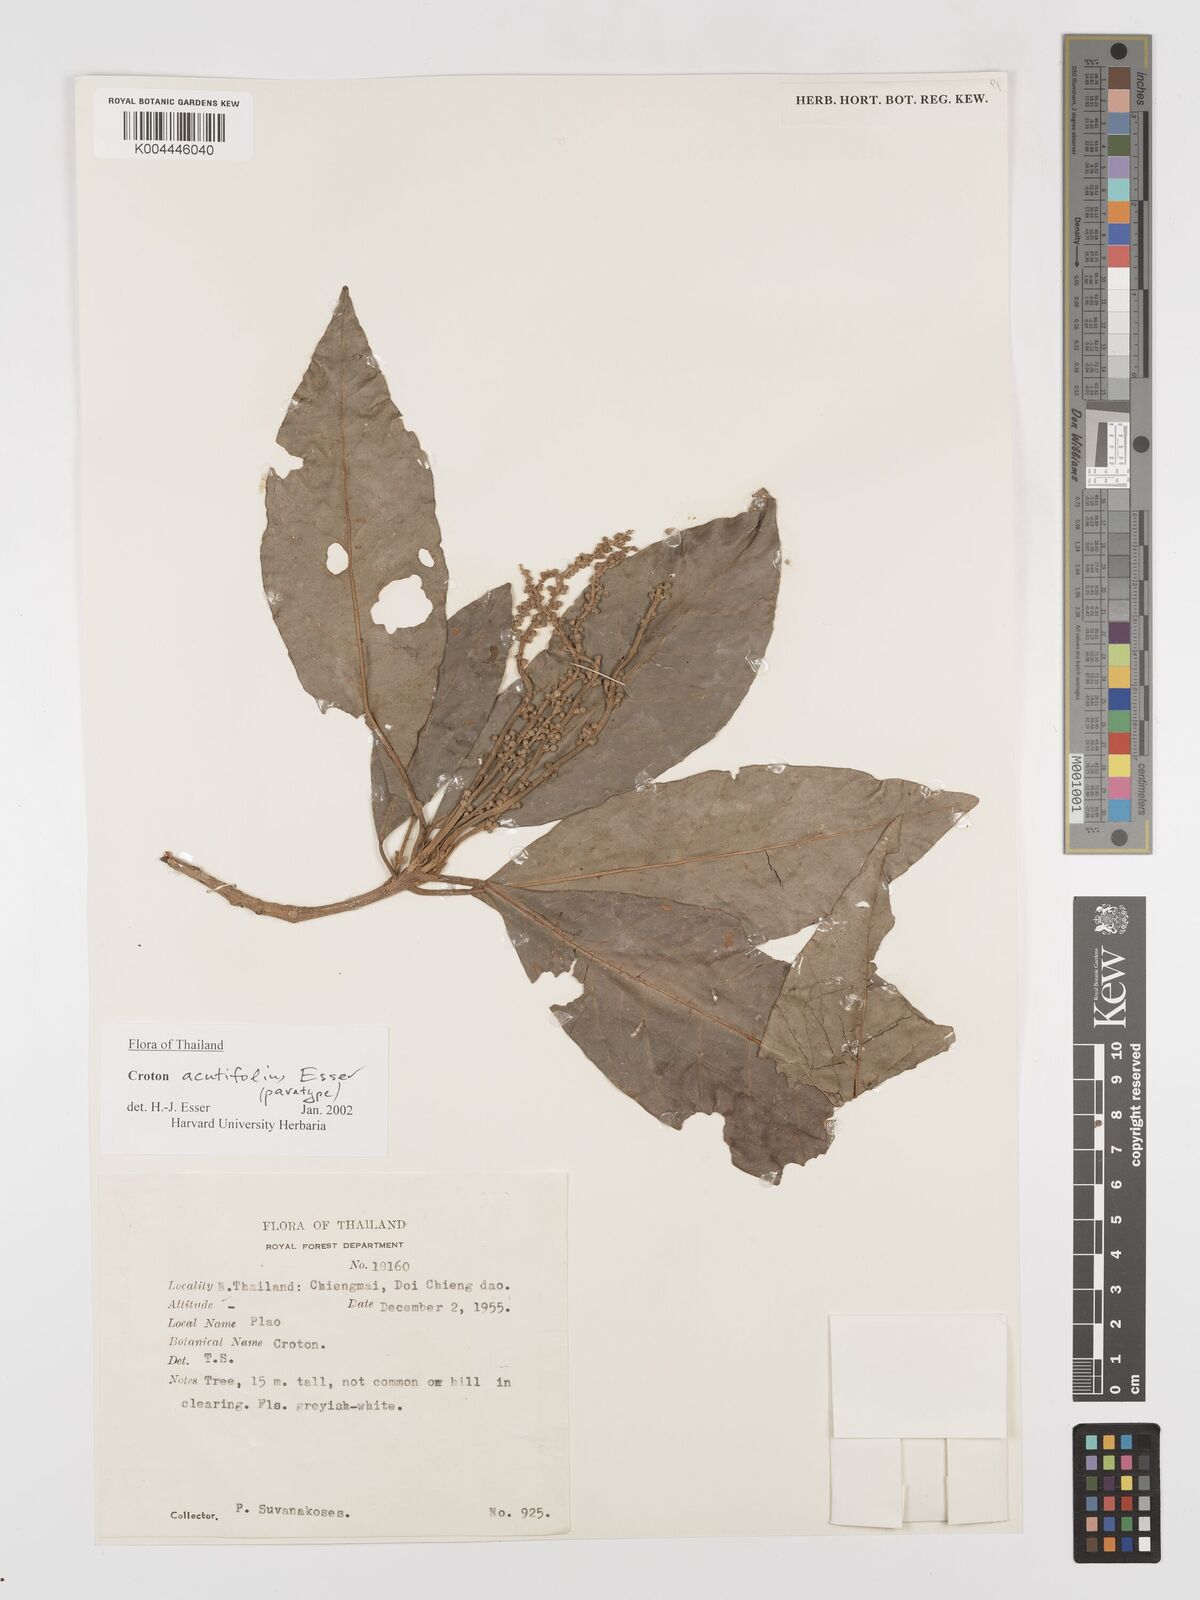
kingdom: Plantae
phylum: Tracheophyta
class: Magnoliopsida
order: Malpighiales
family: Euphorbiaceae
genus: Croton
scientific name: Croton acutifolius
